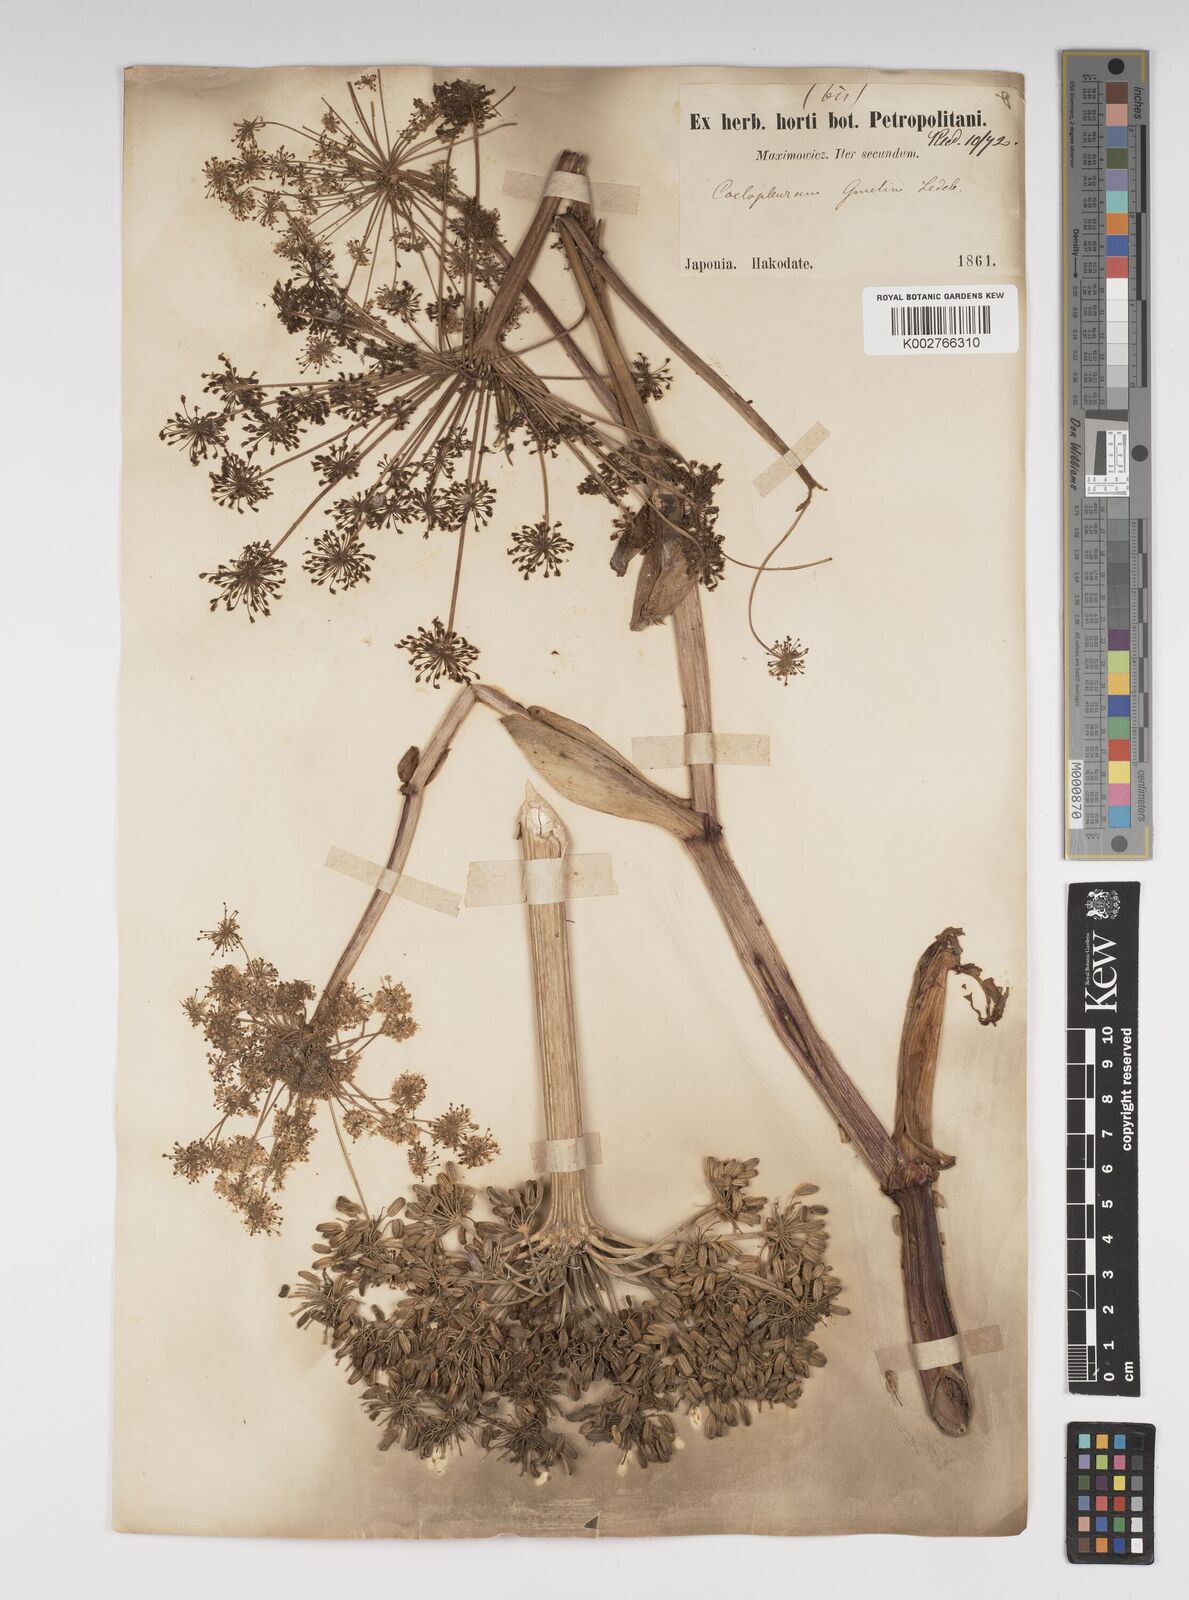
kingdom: Plantae
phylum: Tracheophyta
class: Magnoliopsida
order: Apiales
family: Apiaceae
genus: Angelica
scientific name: Angelica gmelinii
